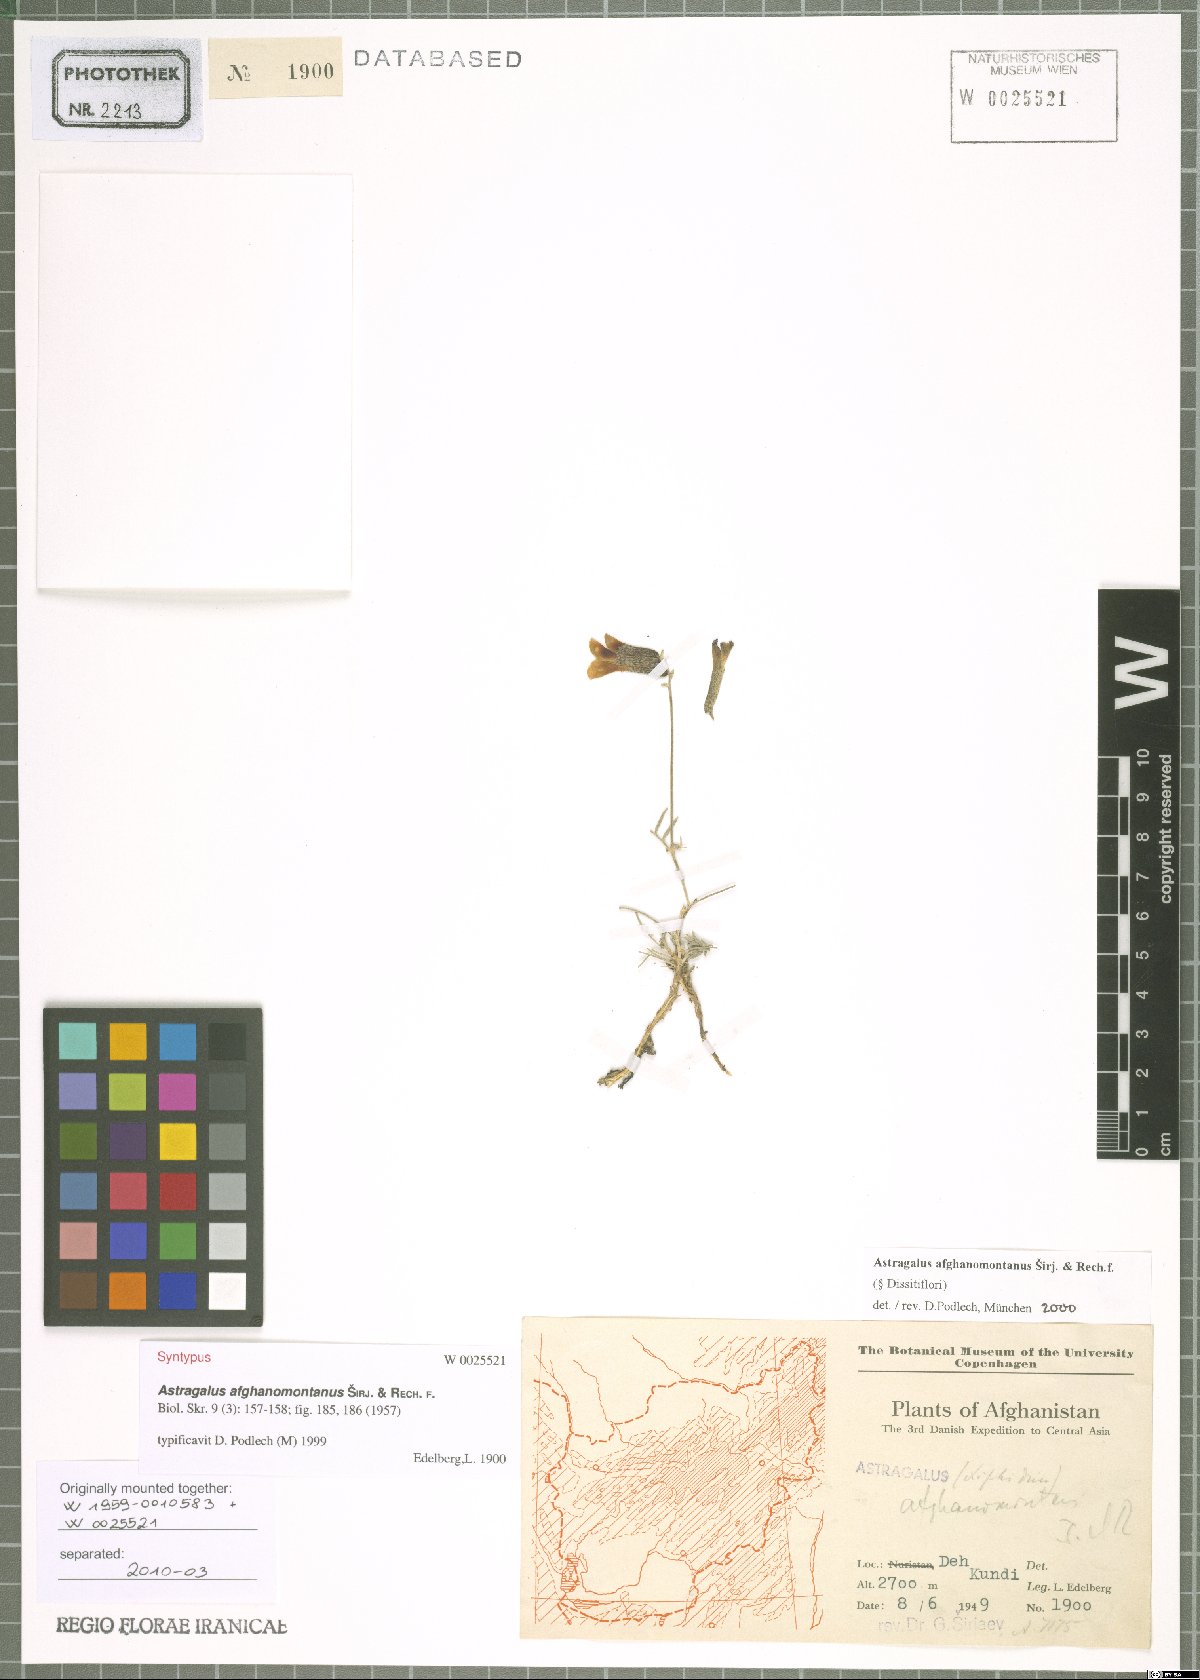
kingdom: Plantae
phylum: Tracheophyta
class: Magnoliopsida
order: Fabales
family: Fabaceae
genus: Astragalus
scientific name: Astragalus afghanomontanus
